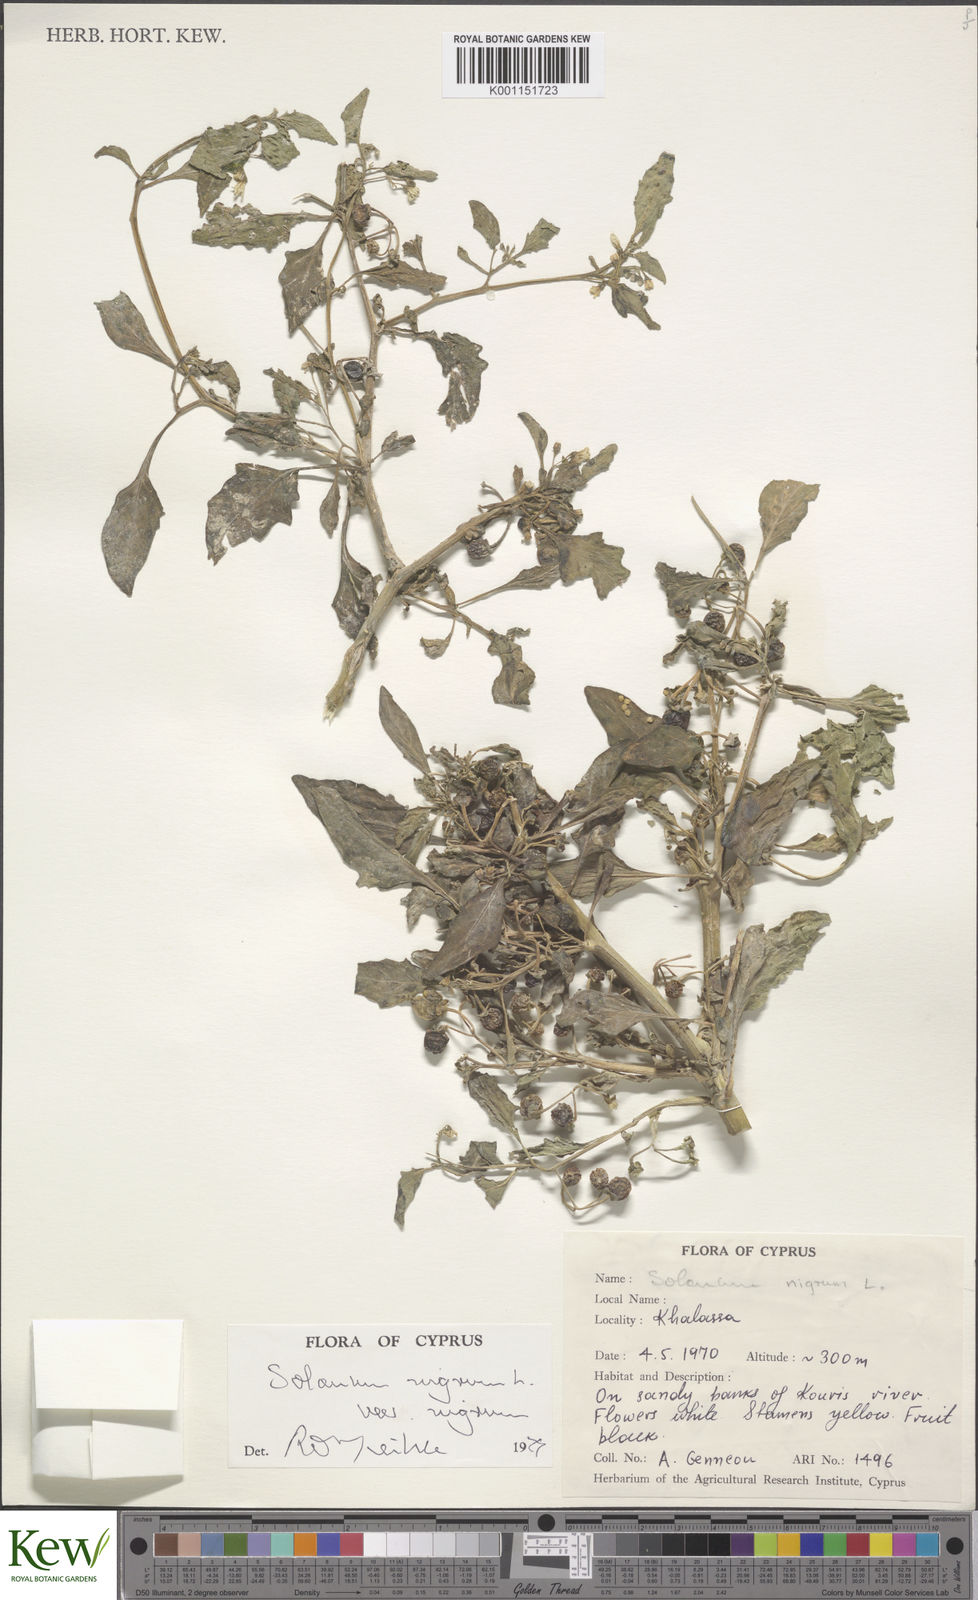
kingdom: Plantae
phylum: Tracheophyta
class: Magnoliopsida
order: Solanales
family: Solanaceae
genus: Solanum
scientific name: Solanum nigrum
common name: Black nightshade
